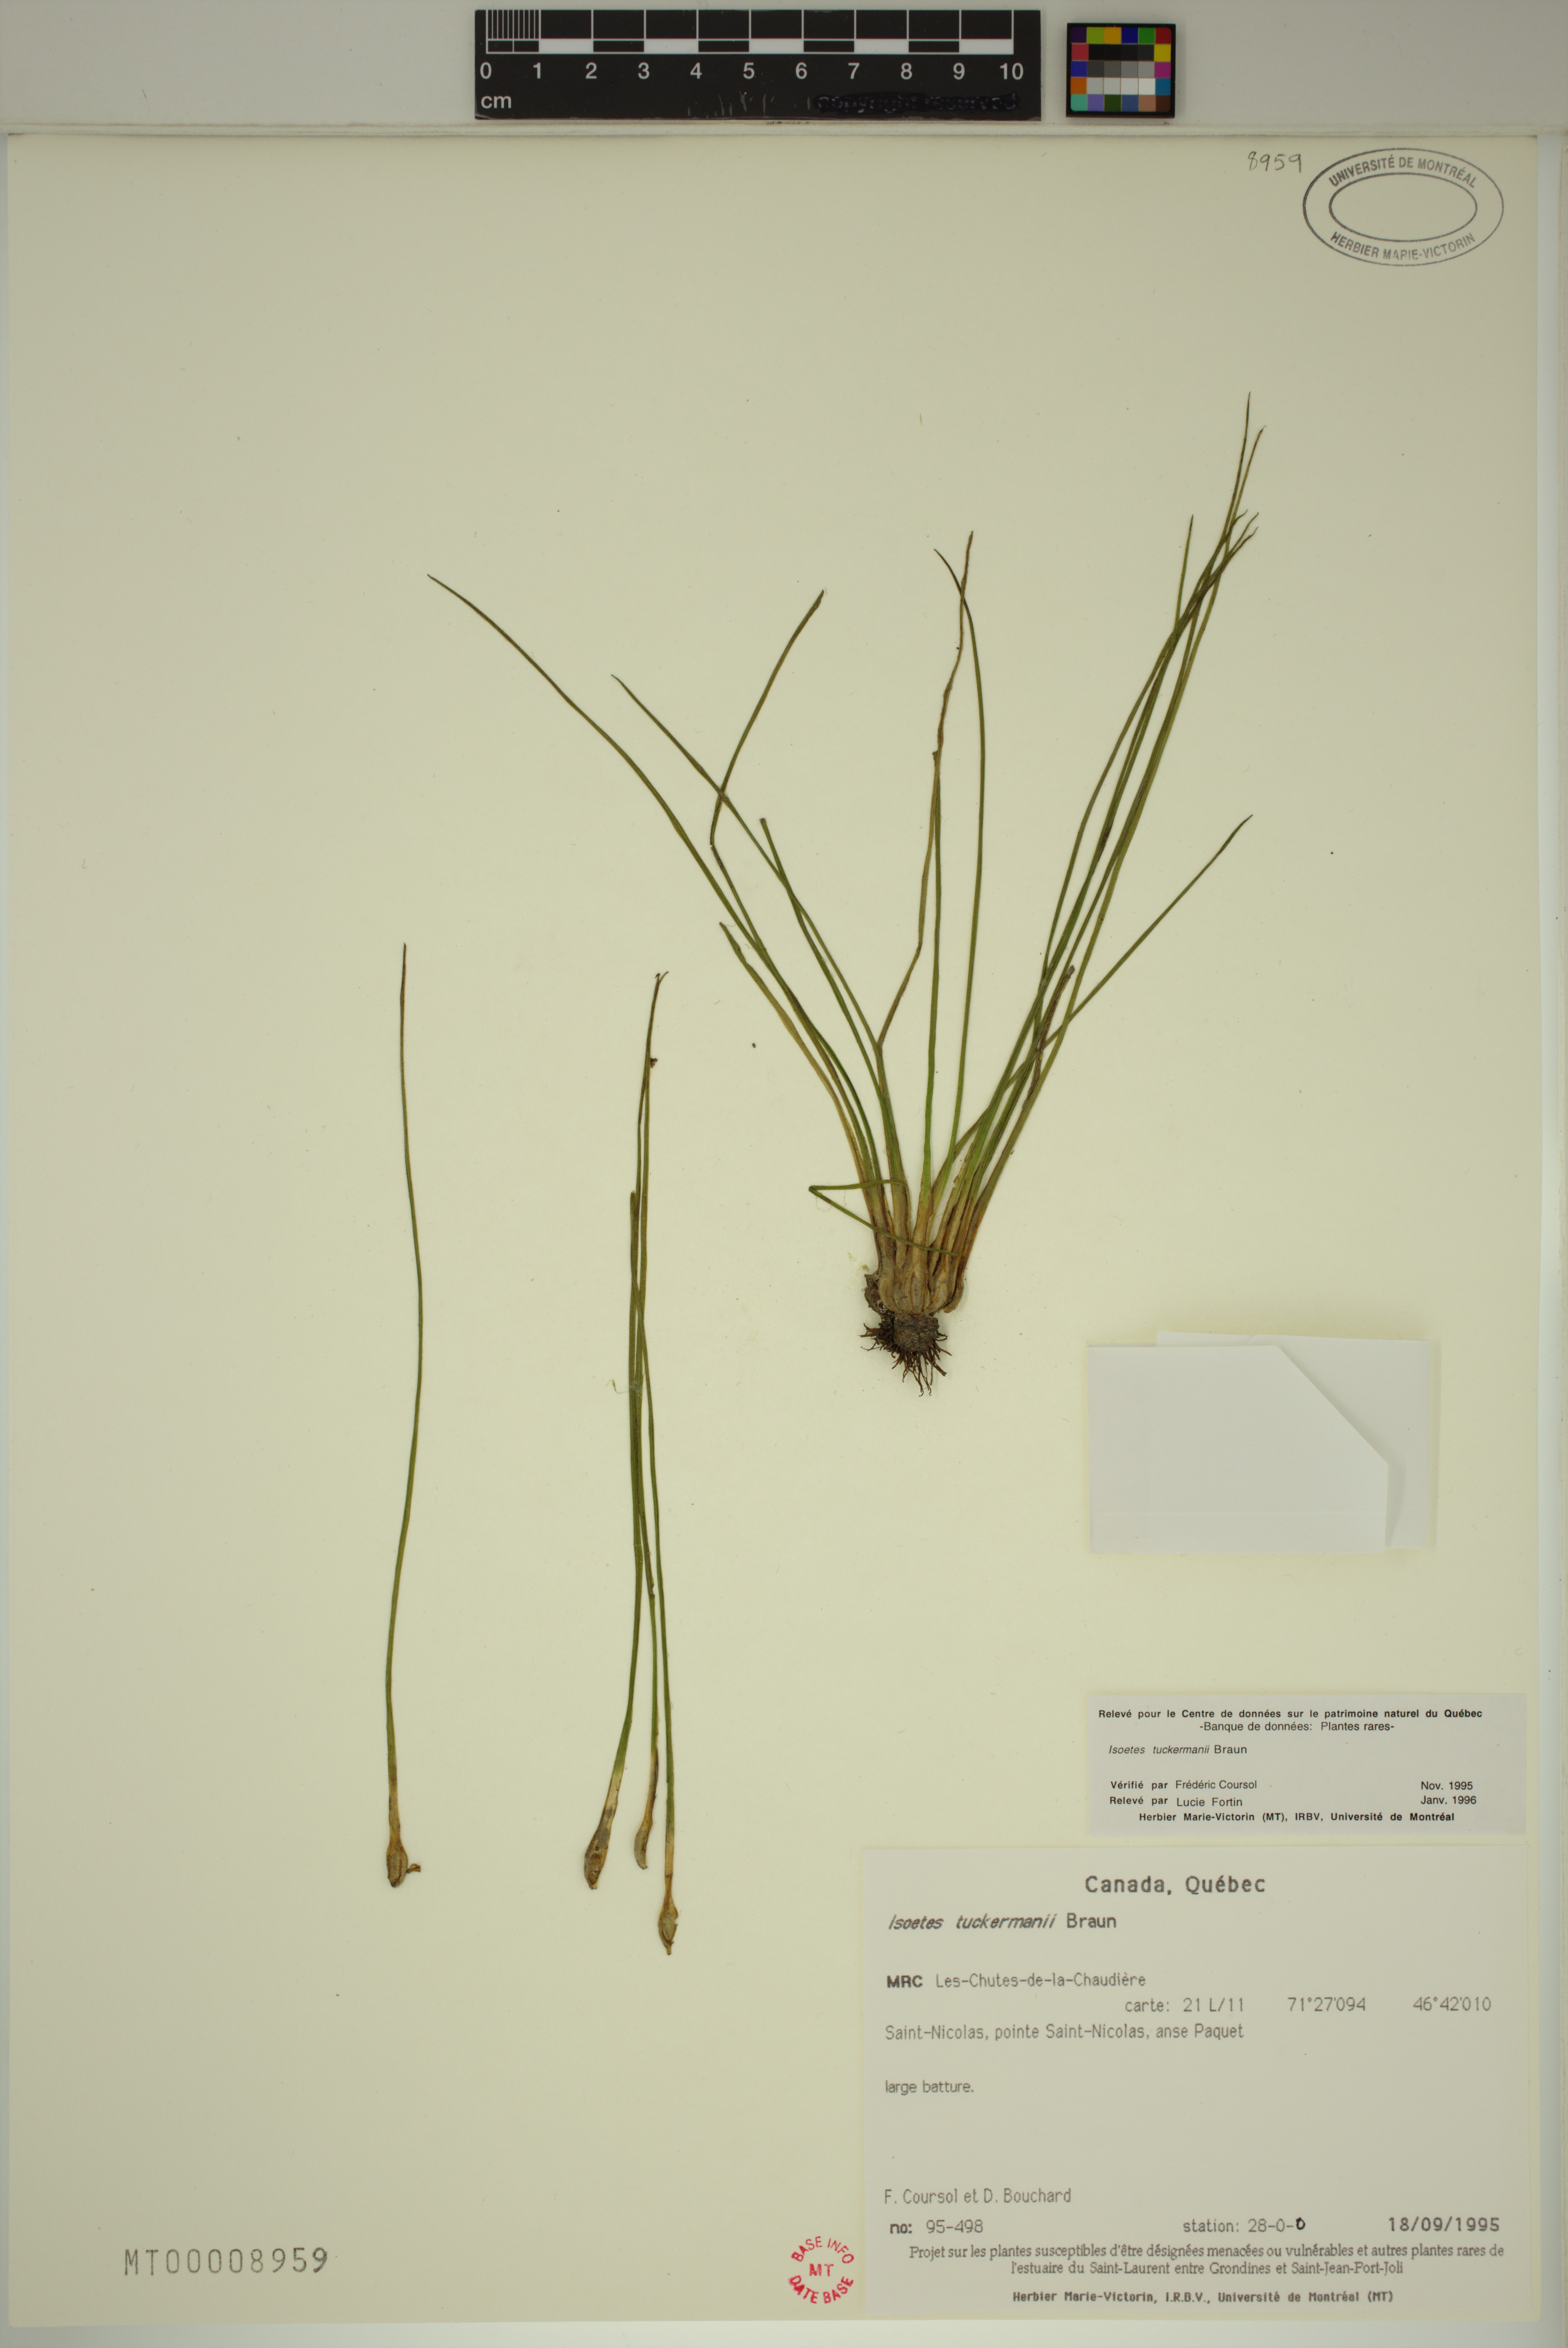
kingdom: Plantae
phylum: Tracheophyta
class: Lycopodiopsida
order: Isoetales
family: Isoetaceae
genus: Isoetes
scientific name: Isoetes laurentiana
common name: St. lawrence quillwort
